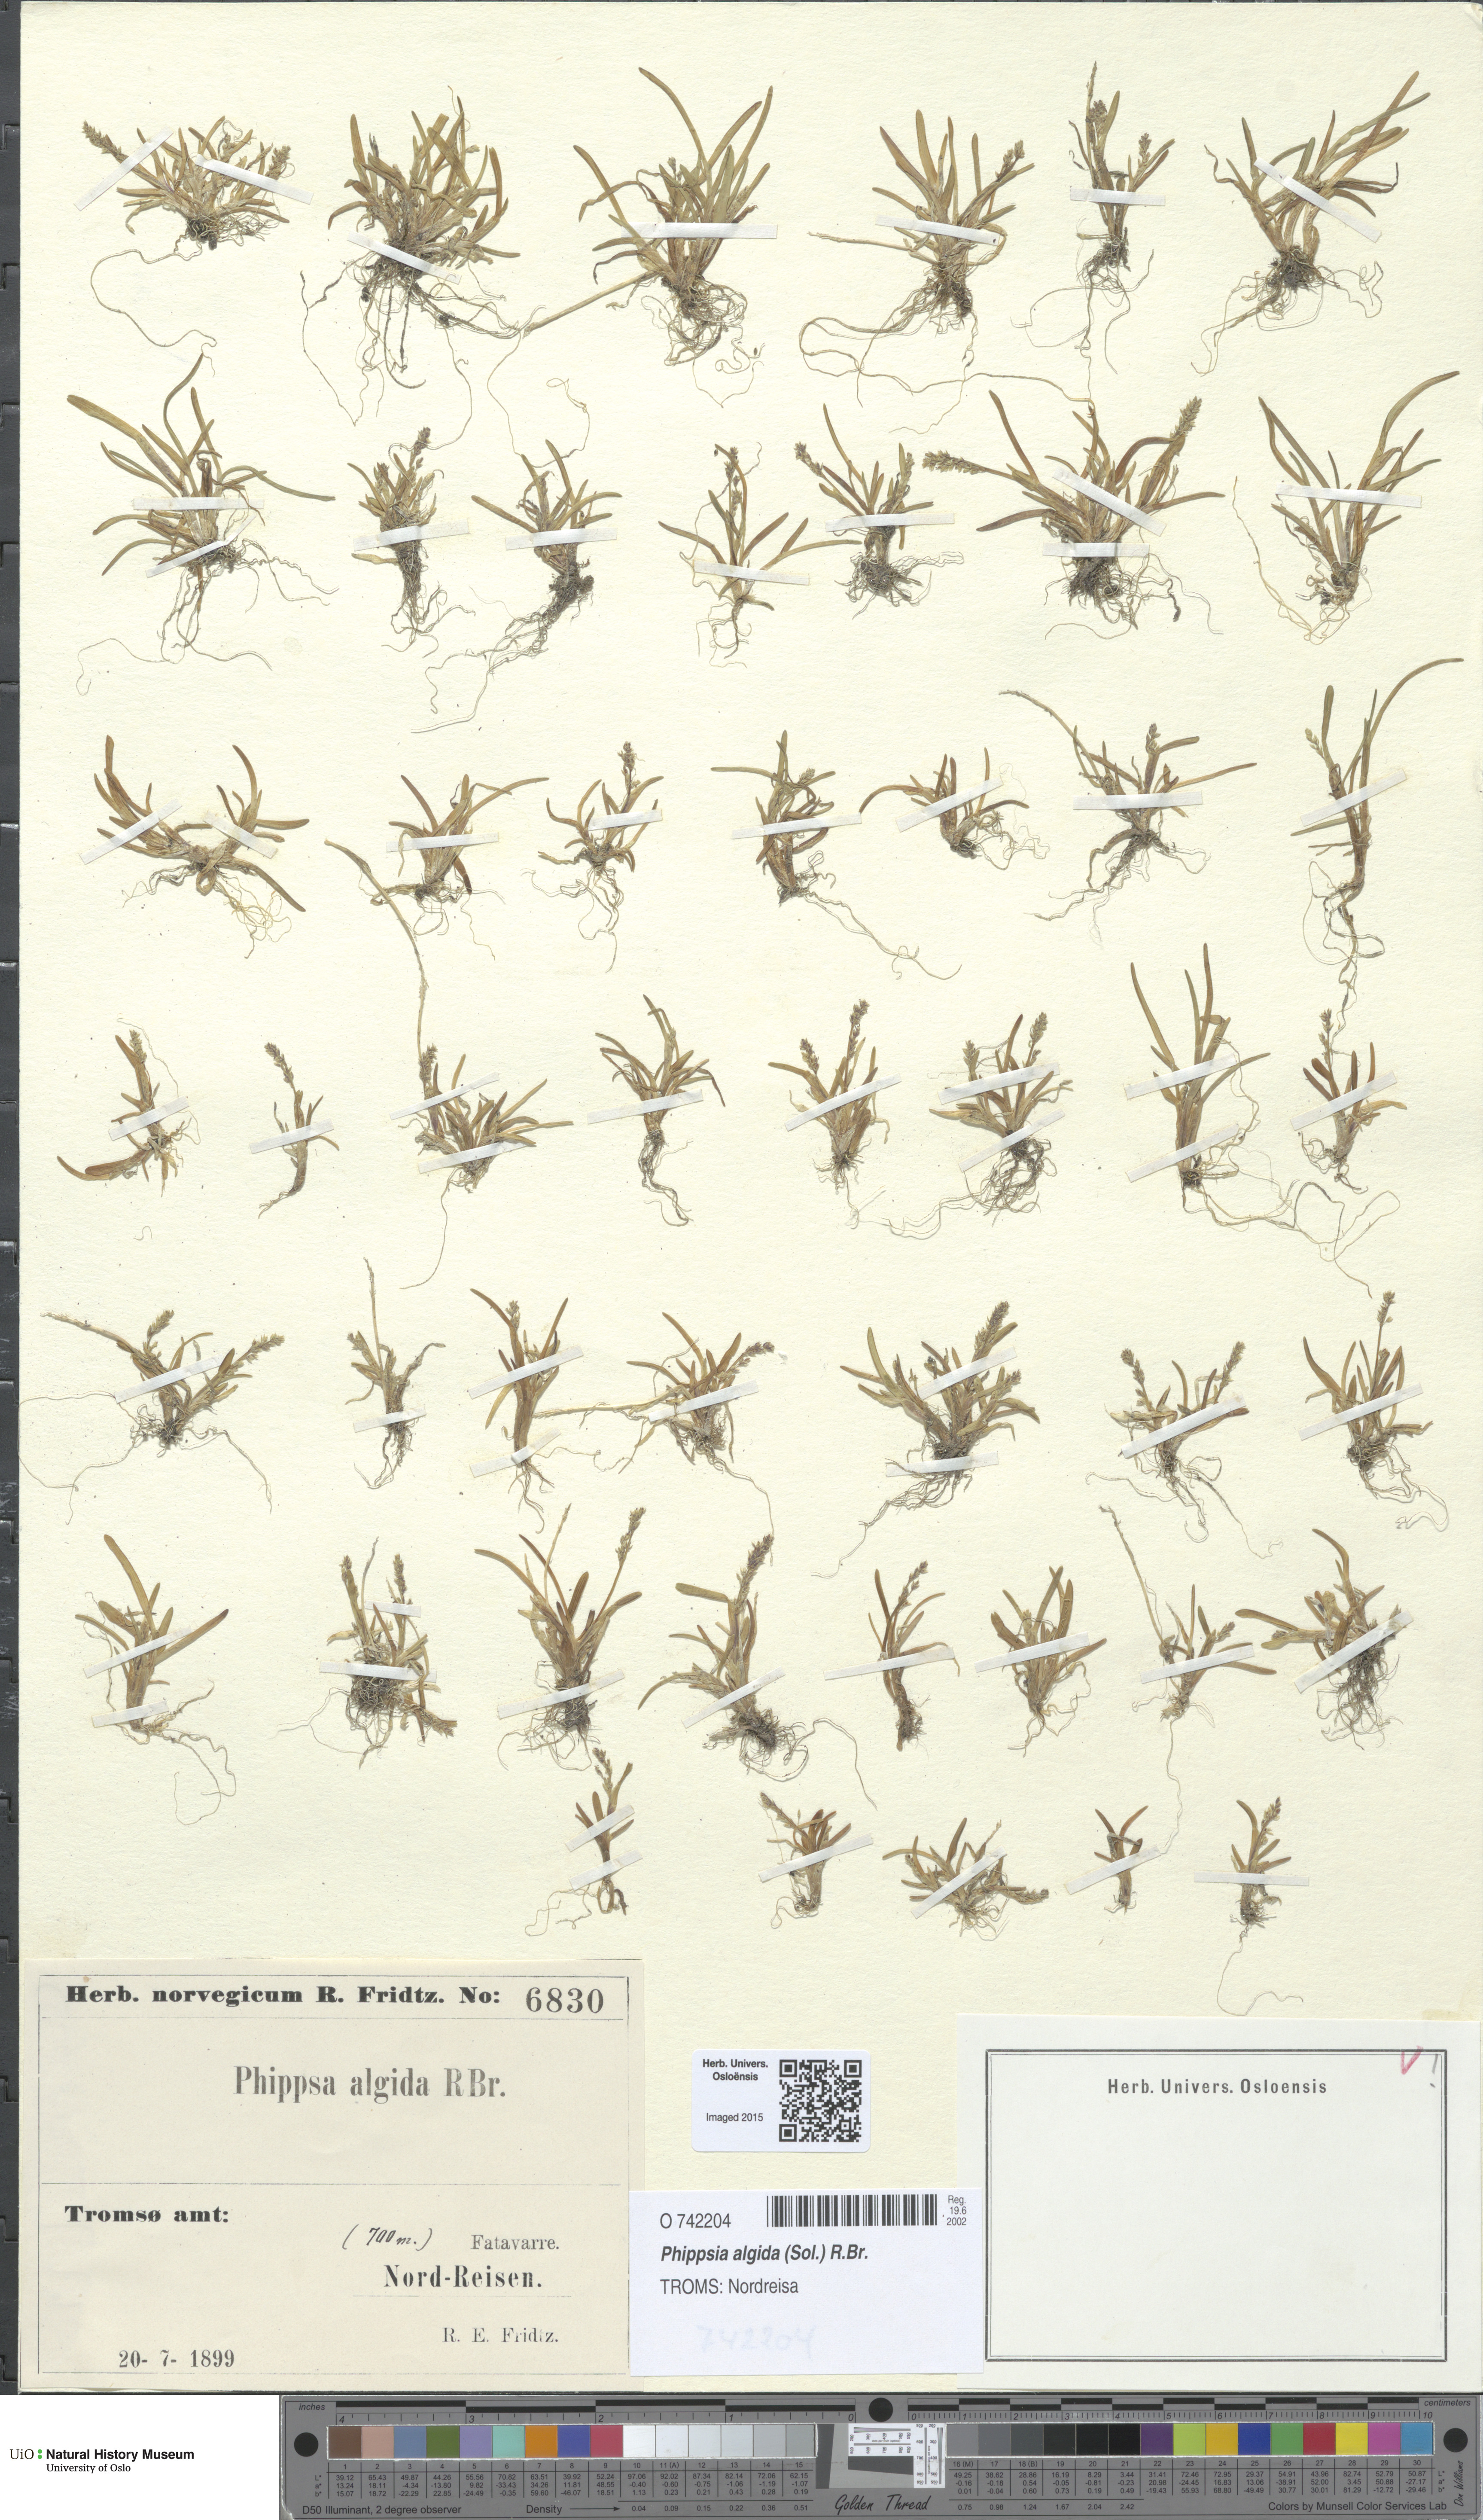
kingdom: Plantae
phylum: Tracheophyta
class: Liliopsida
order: Poales
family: Poaceae
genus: Phippsia
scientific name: Phippsia algida
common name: Ice grass
